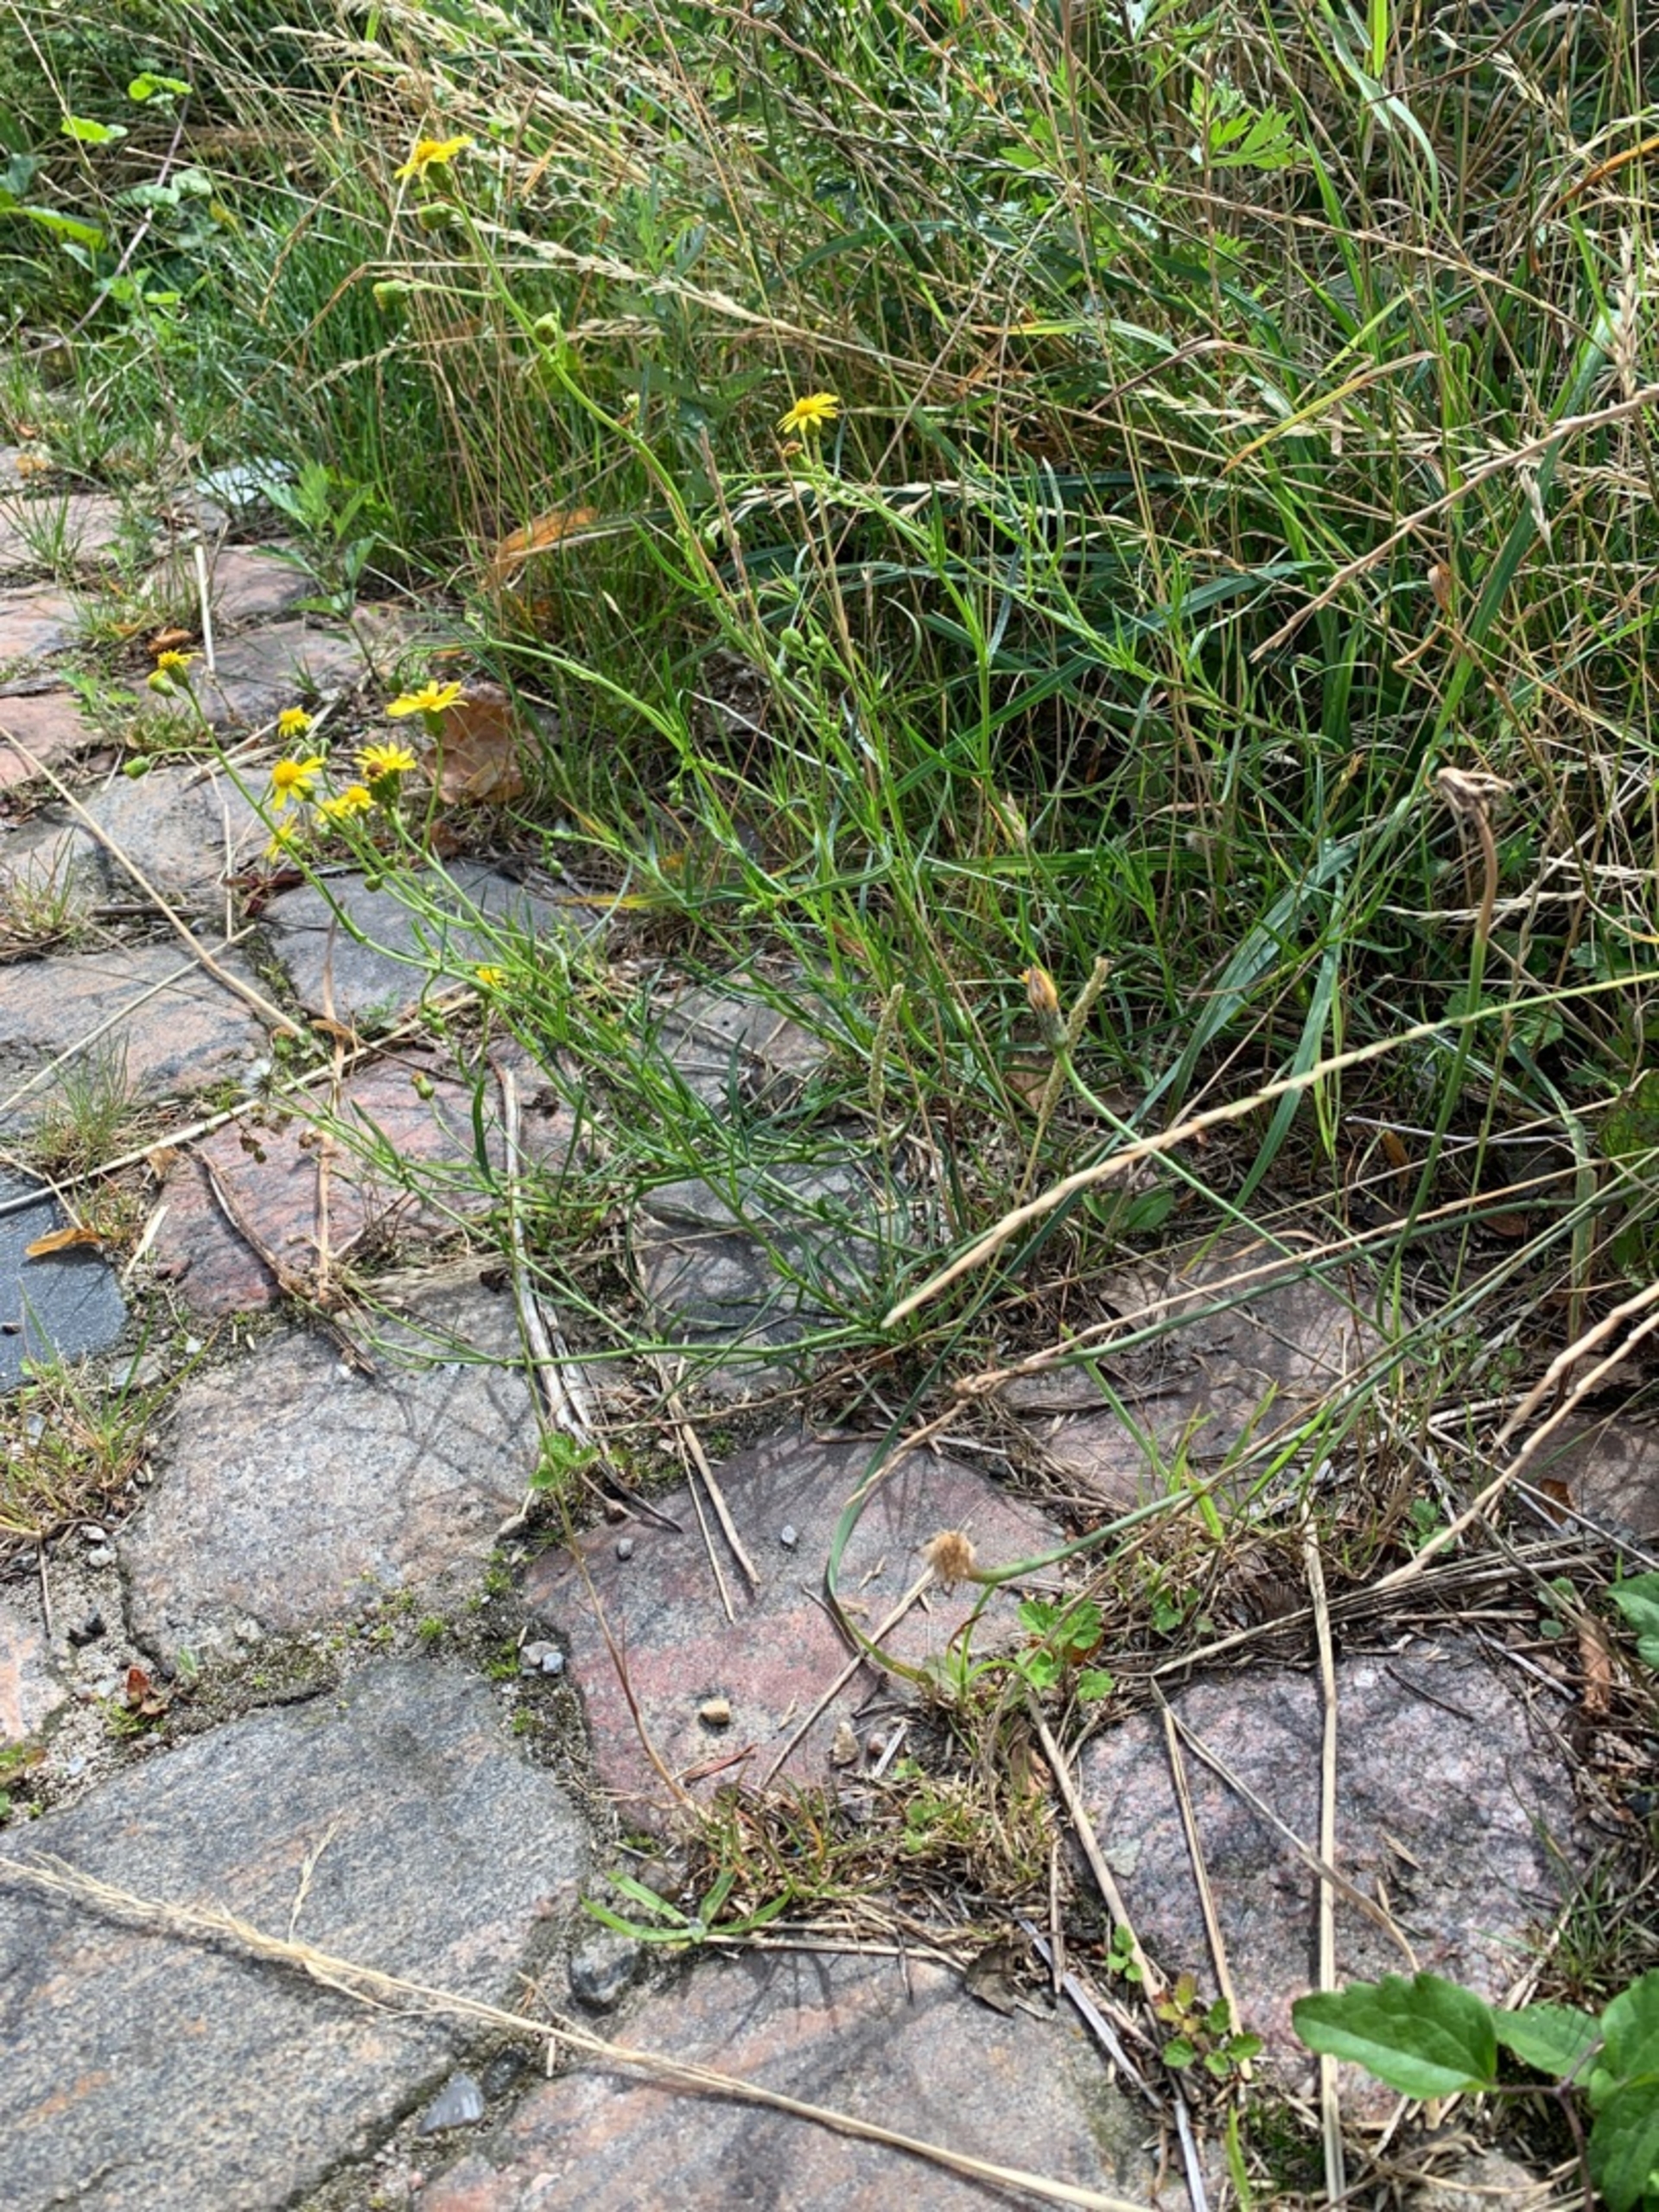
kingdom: Plantae
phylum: Tracheophyta
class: Magnoliopsida
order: Asterales
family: Asteraceae
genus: Senecio
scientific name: Senecio inaequidens
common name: Smalbladet brandbæger
